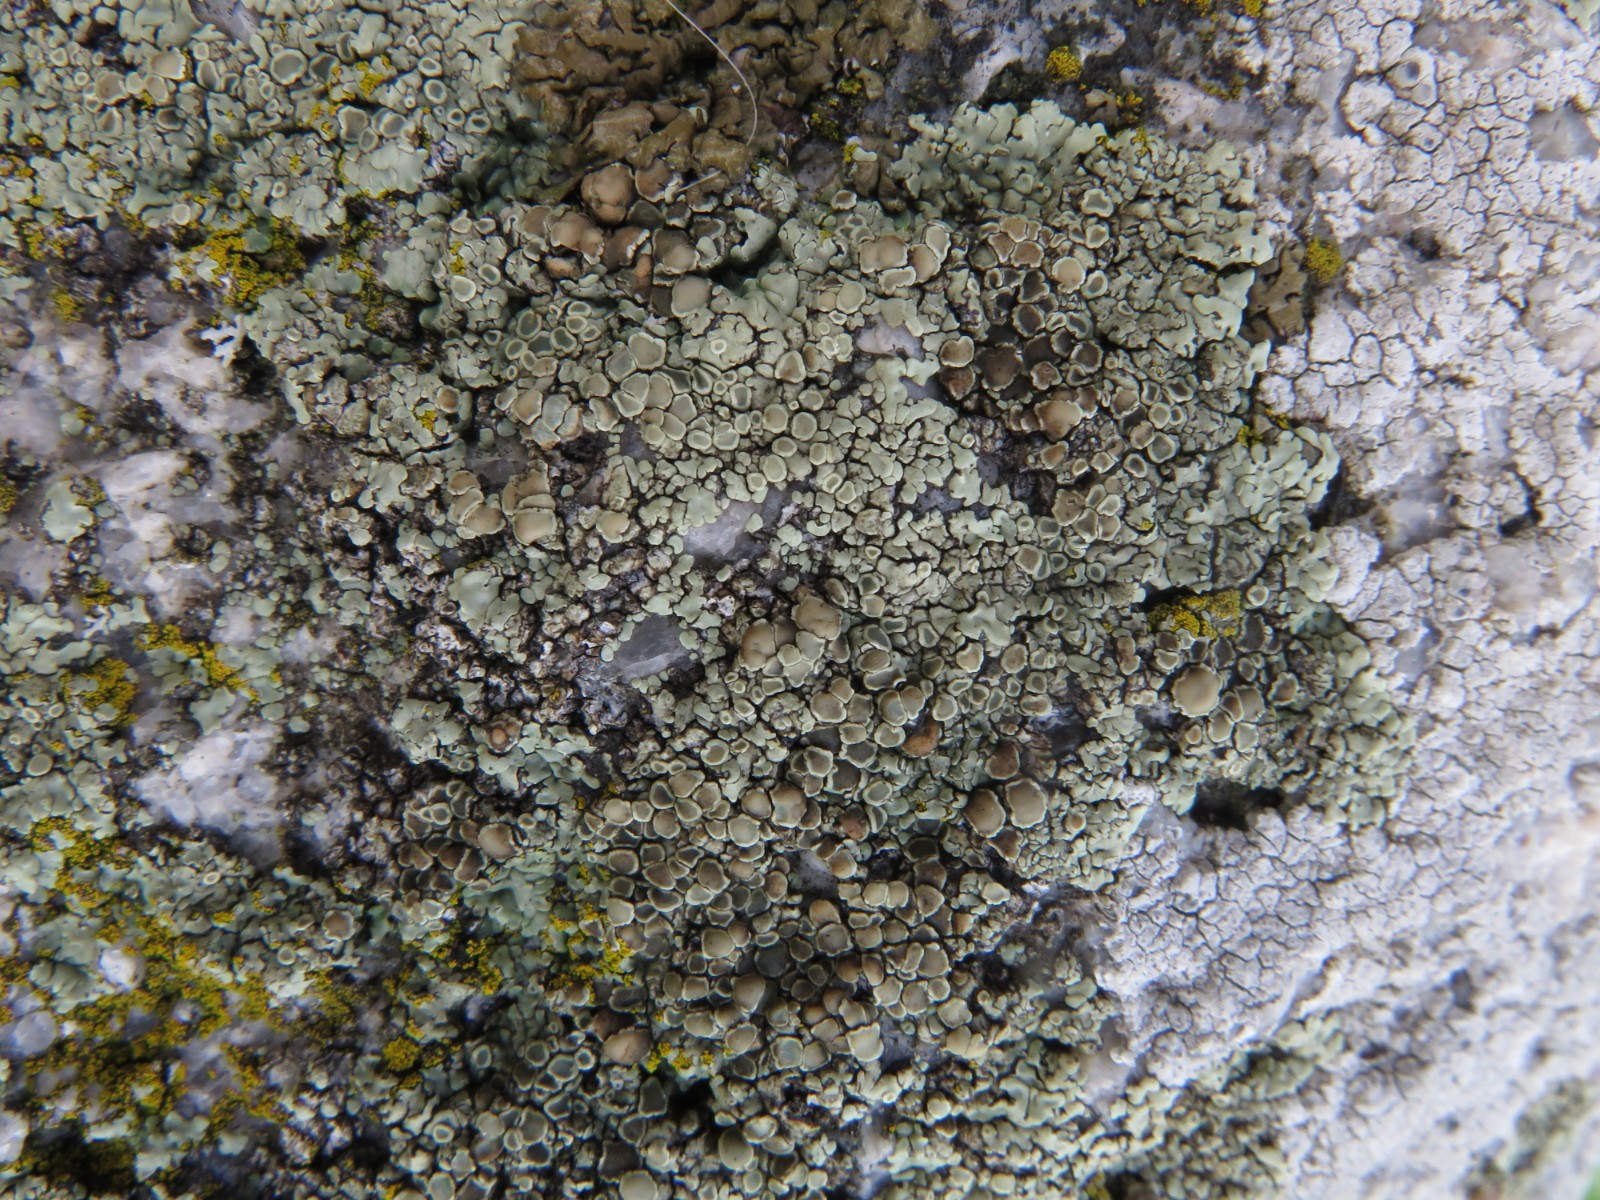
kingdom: Fungi
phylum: Ascomycota
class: Lecanoromycetes
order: Lecanorales
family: Lecanoraceae
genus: Protoparmeliopsis
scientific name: Protoparmeliopsis muralis
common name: randfliget kantskivelav
